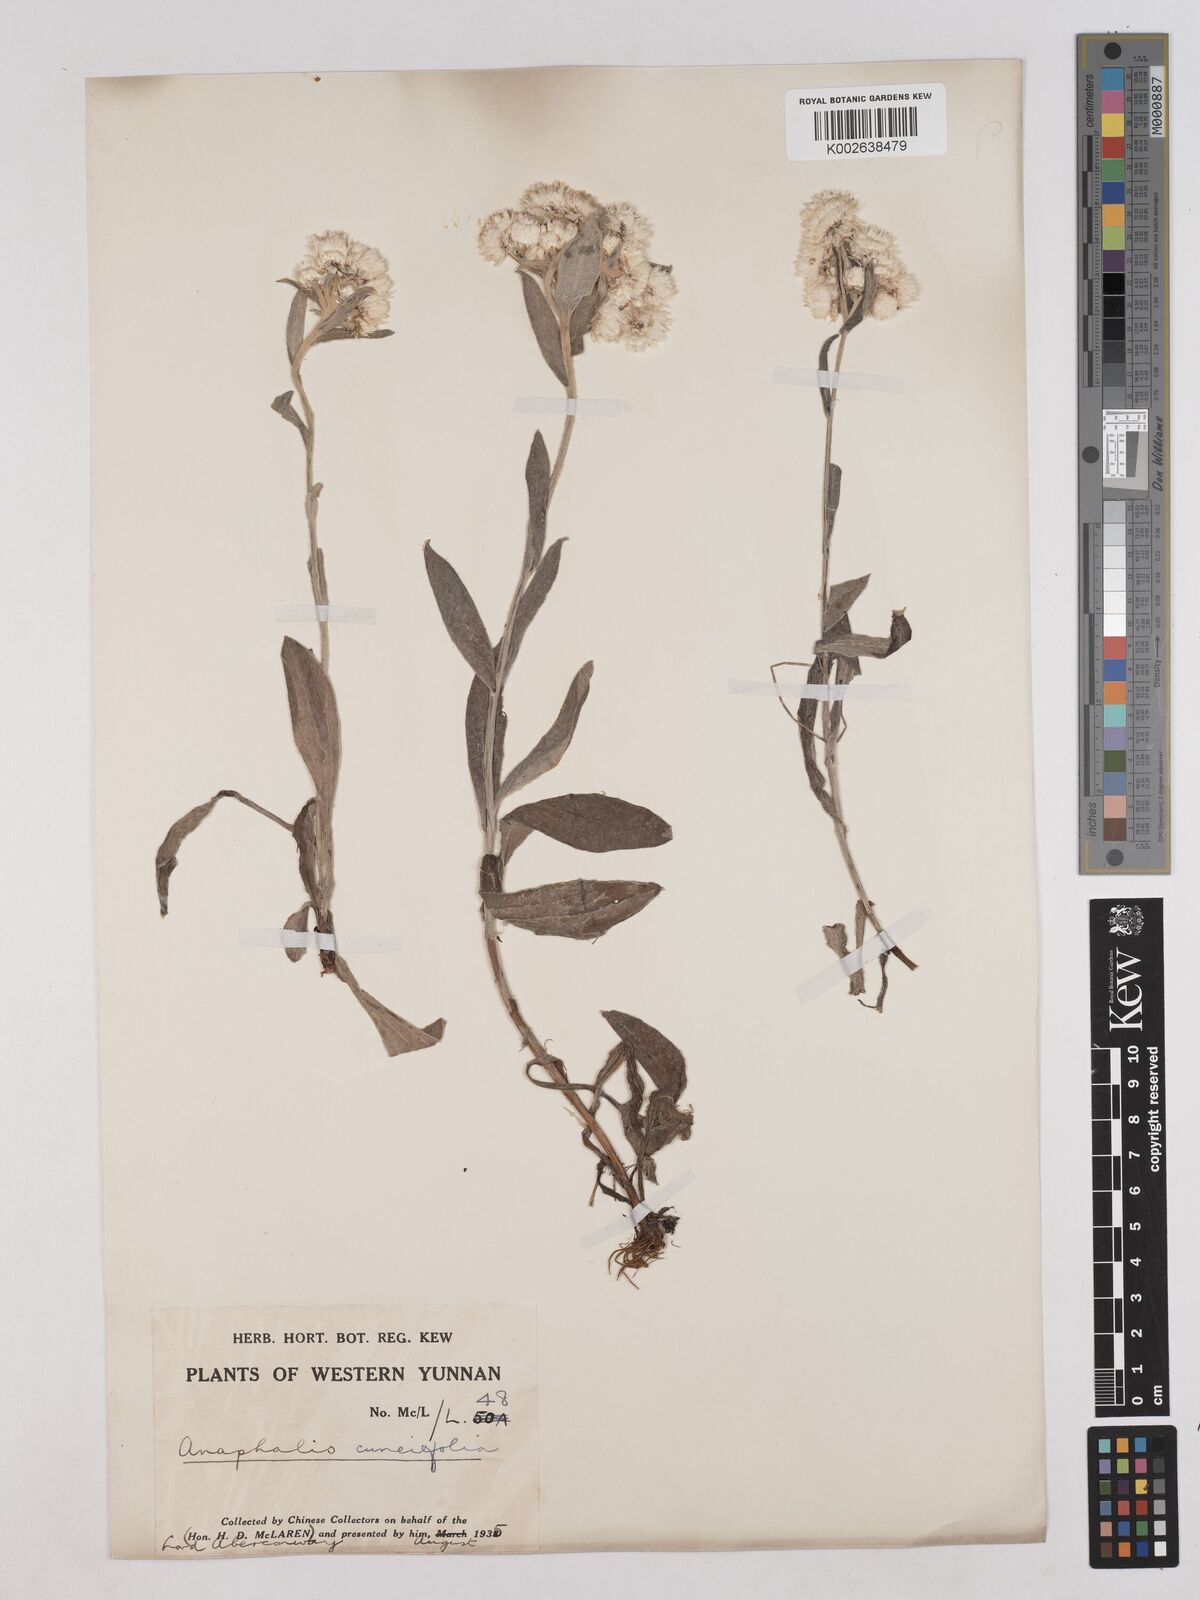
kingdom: Plantae
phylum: Tracheophyta
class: Magnoliopsida
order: Asterales
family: Asteraceae
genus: Anaphalis
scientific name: Anaphalis nepalensis
